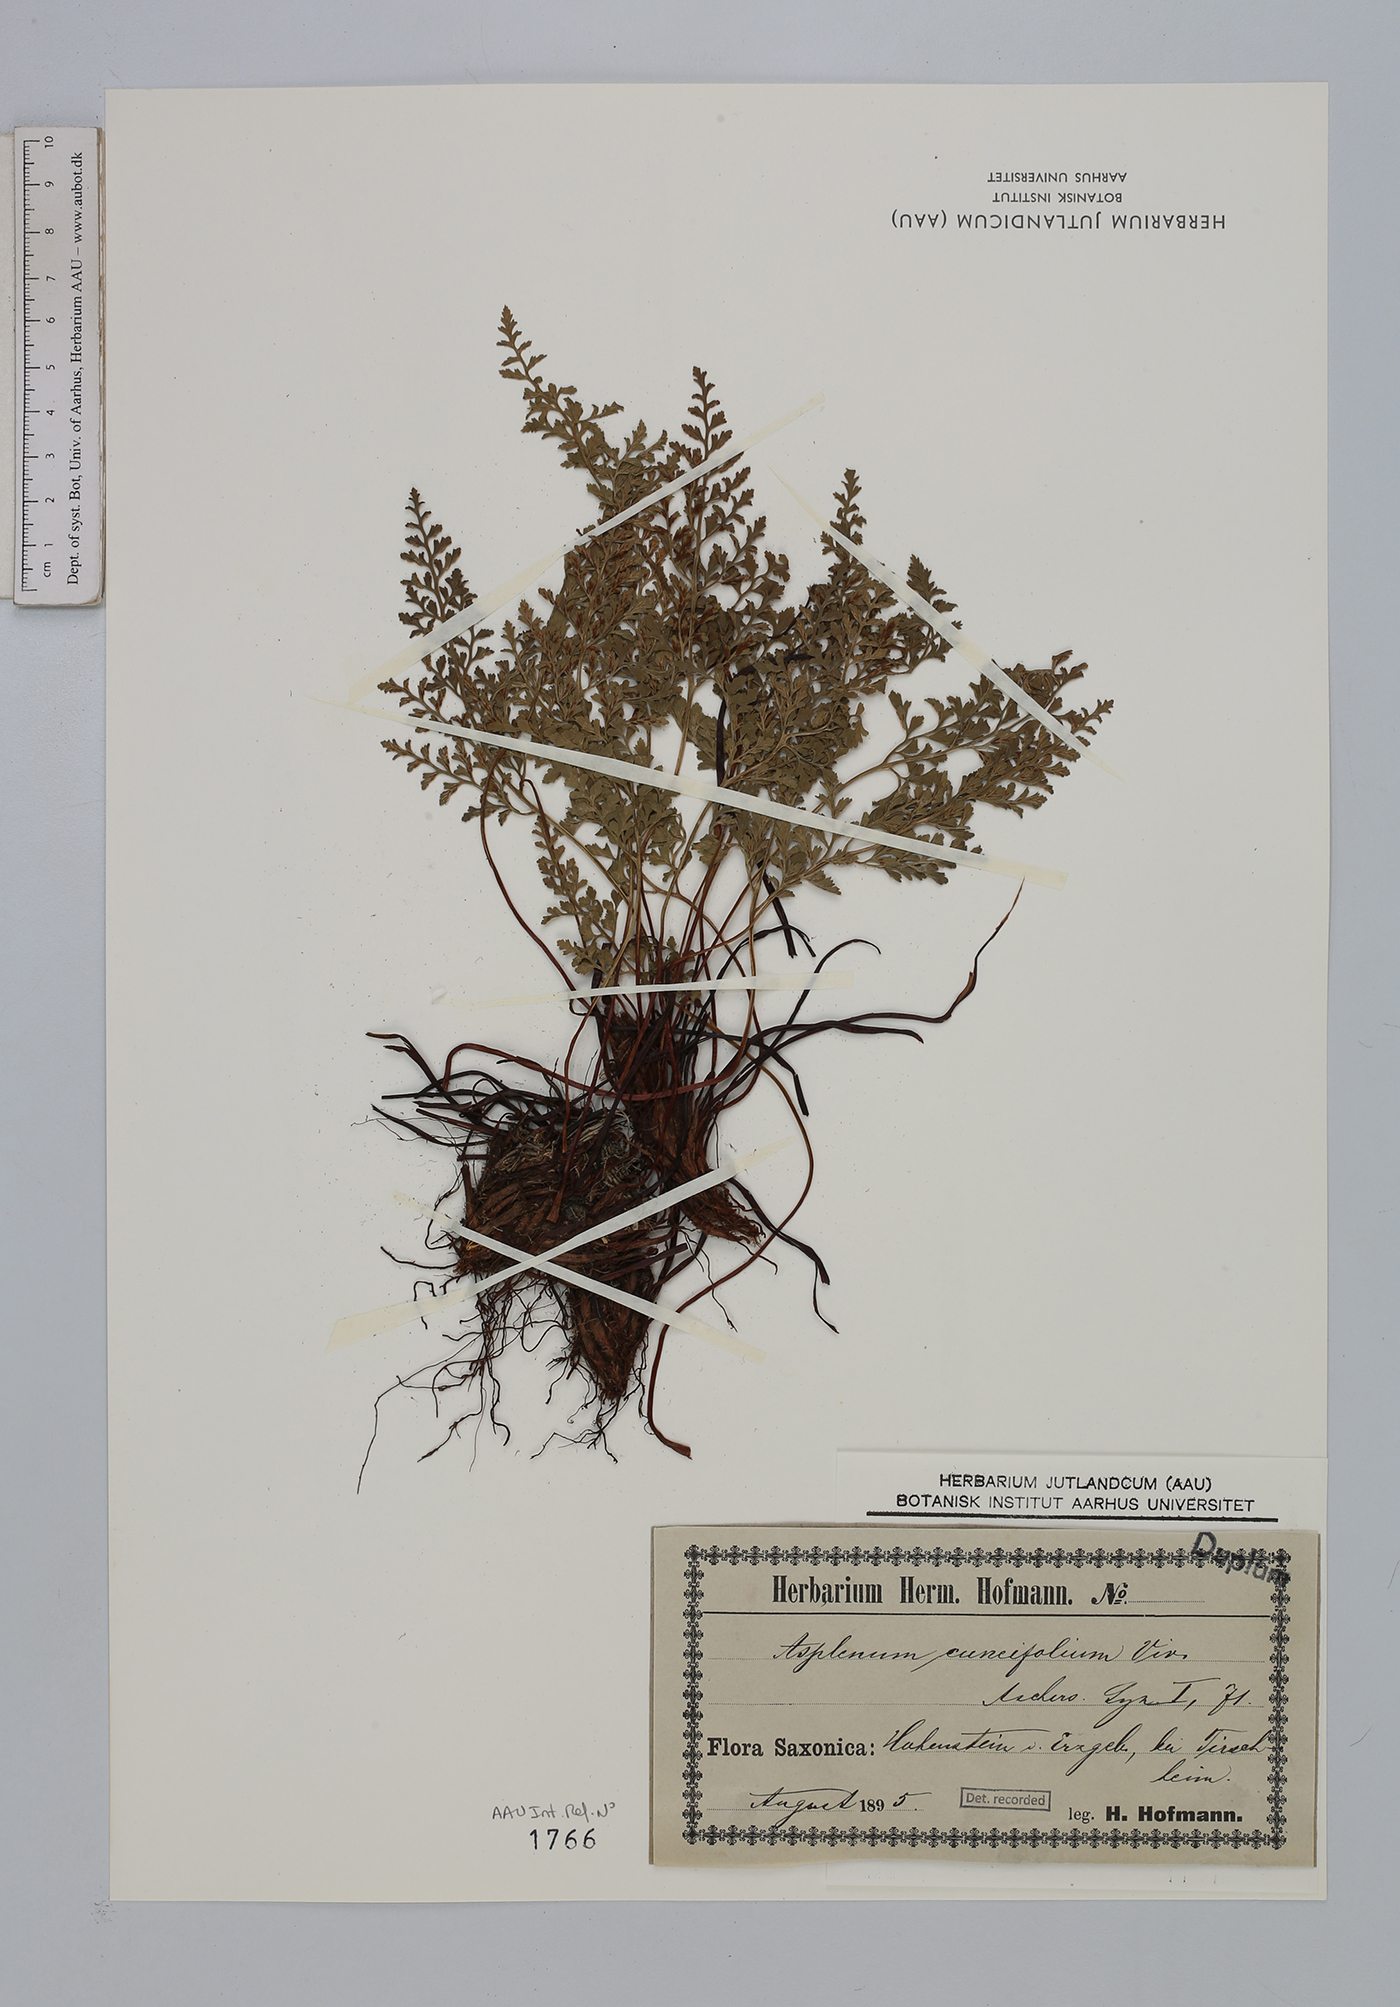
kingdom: Plantae
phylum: Tracheophyta
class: Polypodiopsida
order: Polypodiales
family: Aspleniaceae
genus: Asplenium
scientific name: Asplenium cuneifolium
